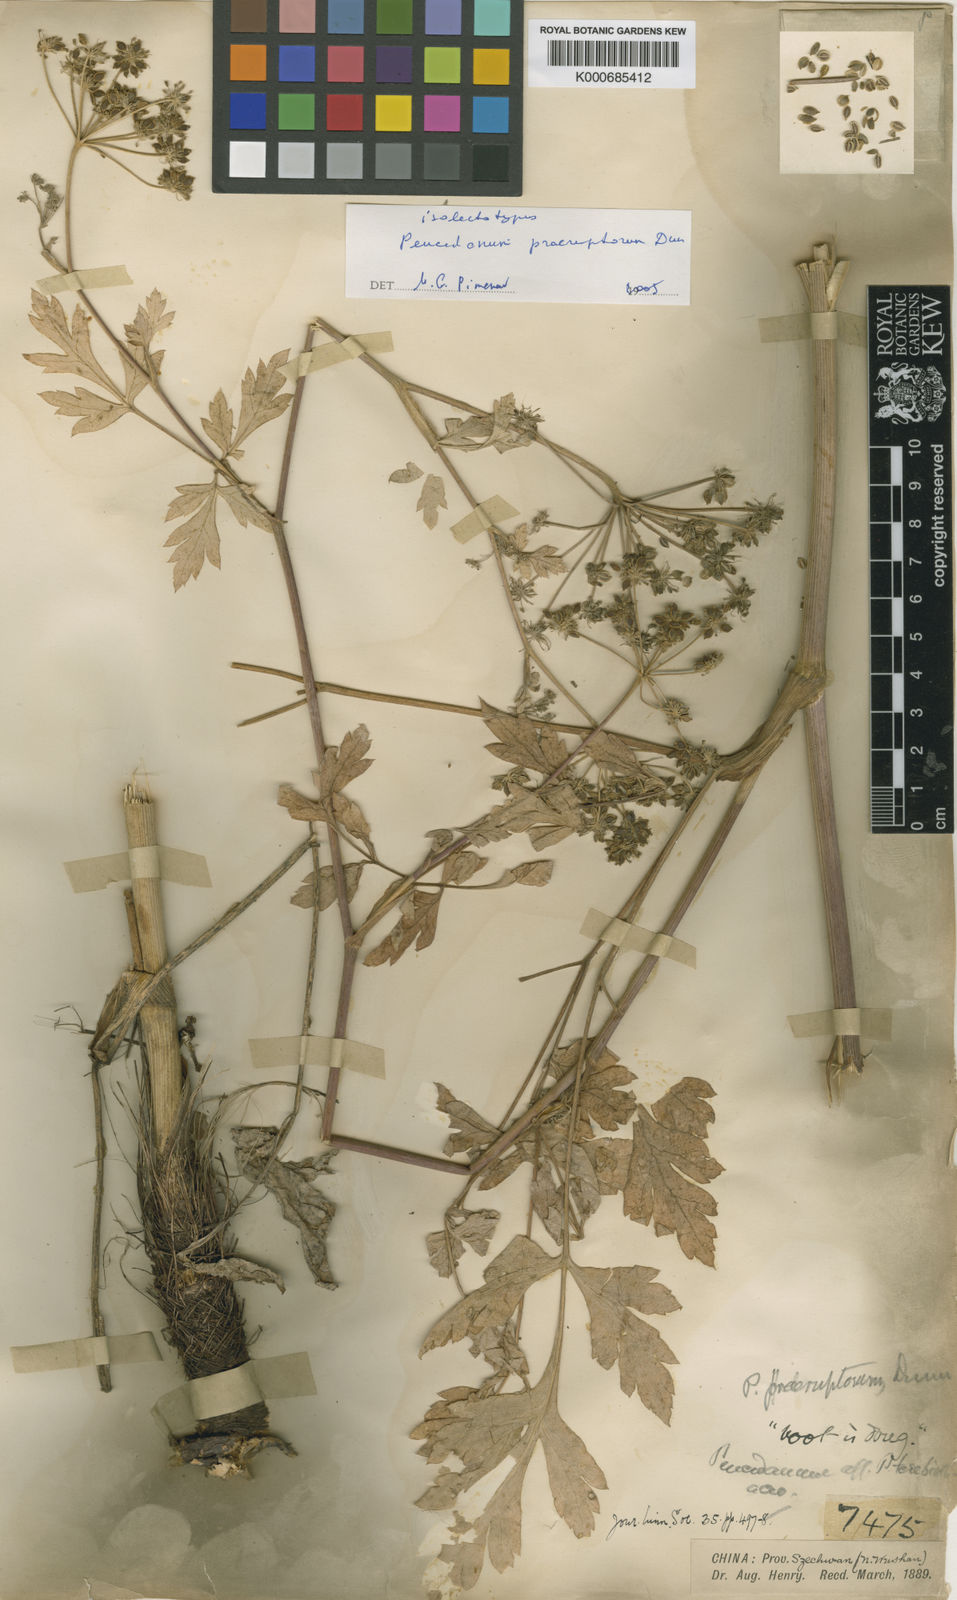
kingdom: Plantae
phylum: Tracheophyta
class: Magnoliopsida
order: Apiales
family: Apiaceae
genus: Kitagawia
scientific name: Kitagawia praeruptora
